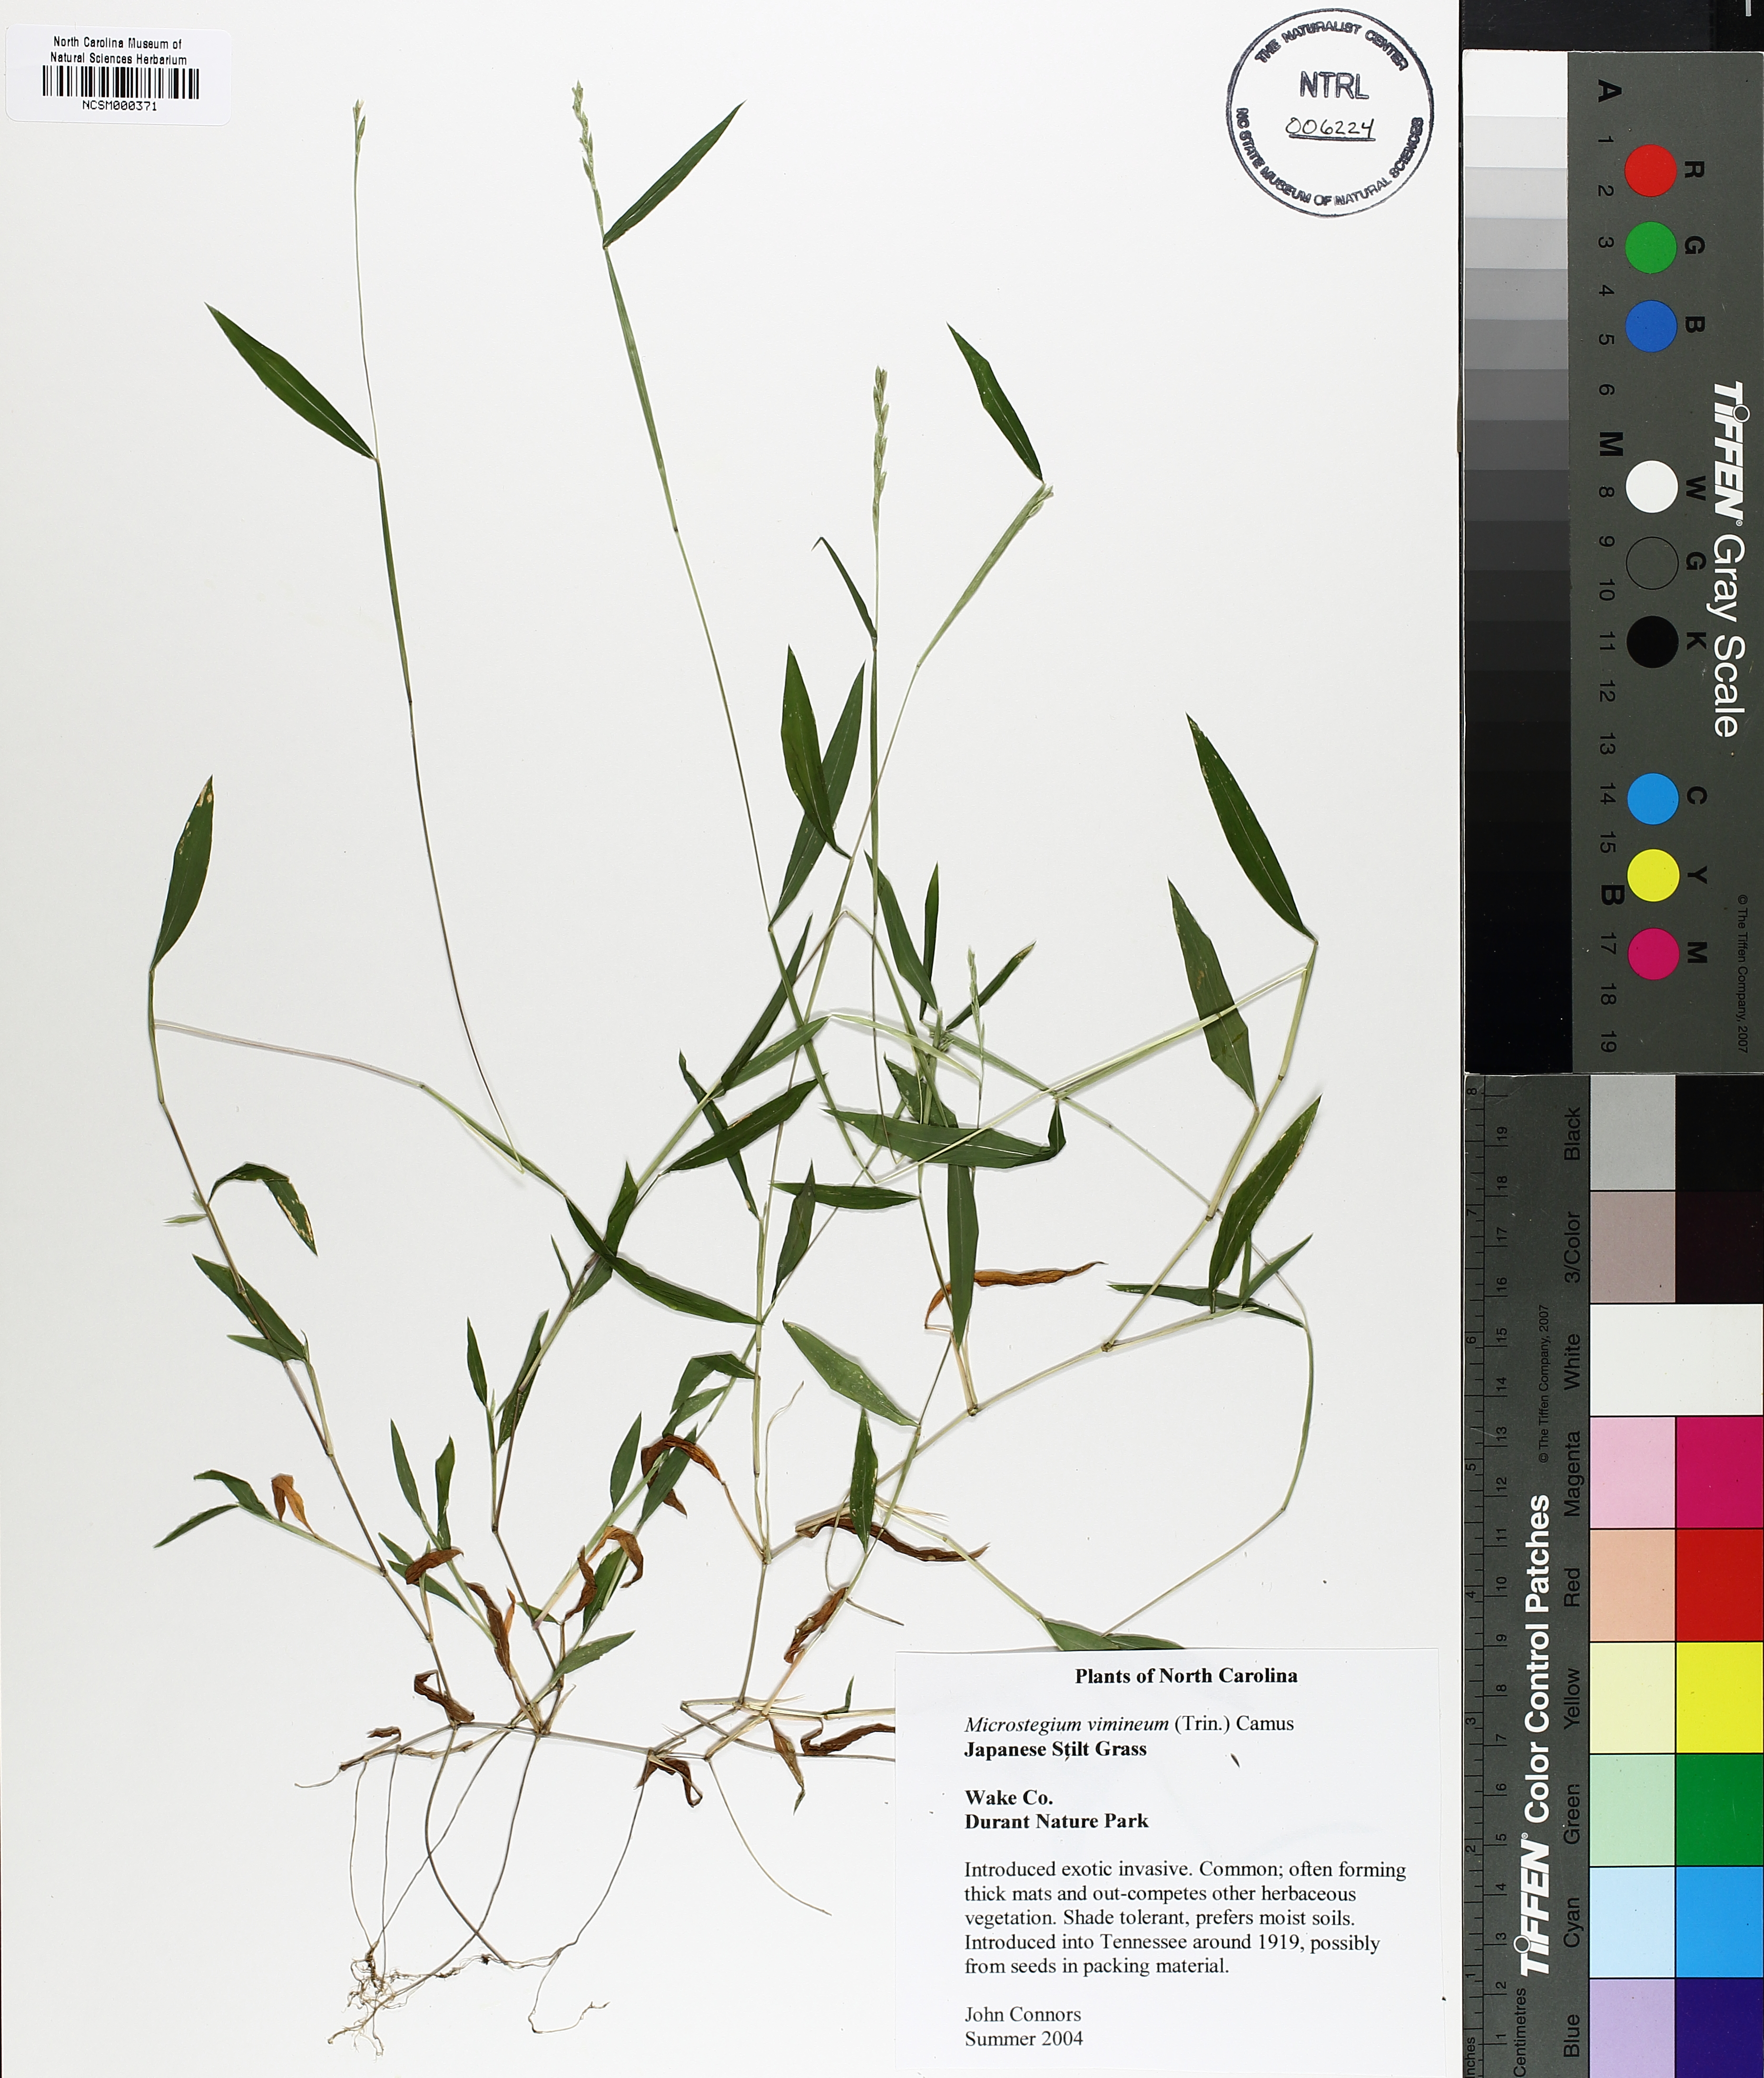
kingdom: Plantae
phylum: Tracheophyta
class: Liliopsida
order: Poales
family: Poaceae
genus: Microstegium
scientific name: Microstegium vimineum
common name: Japanese stiltgrass
